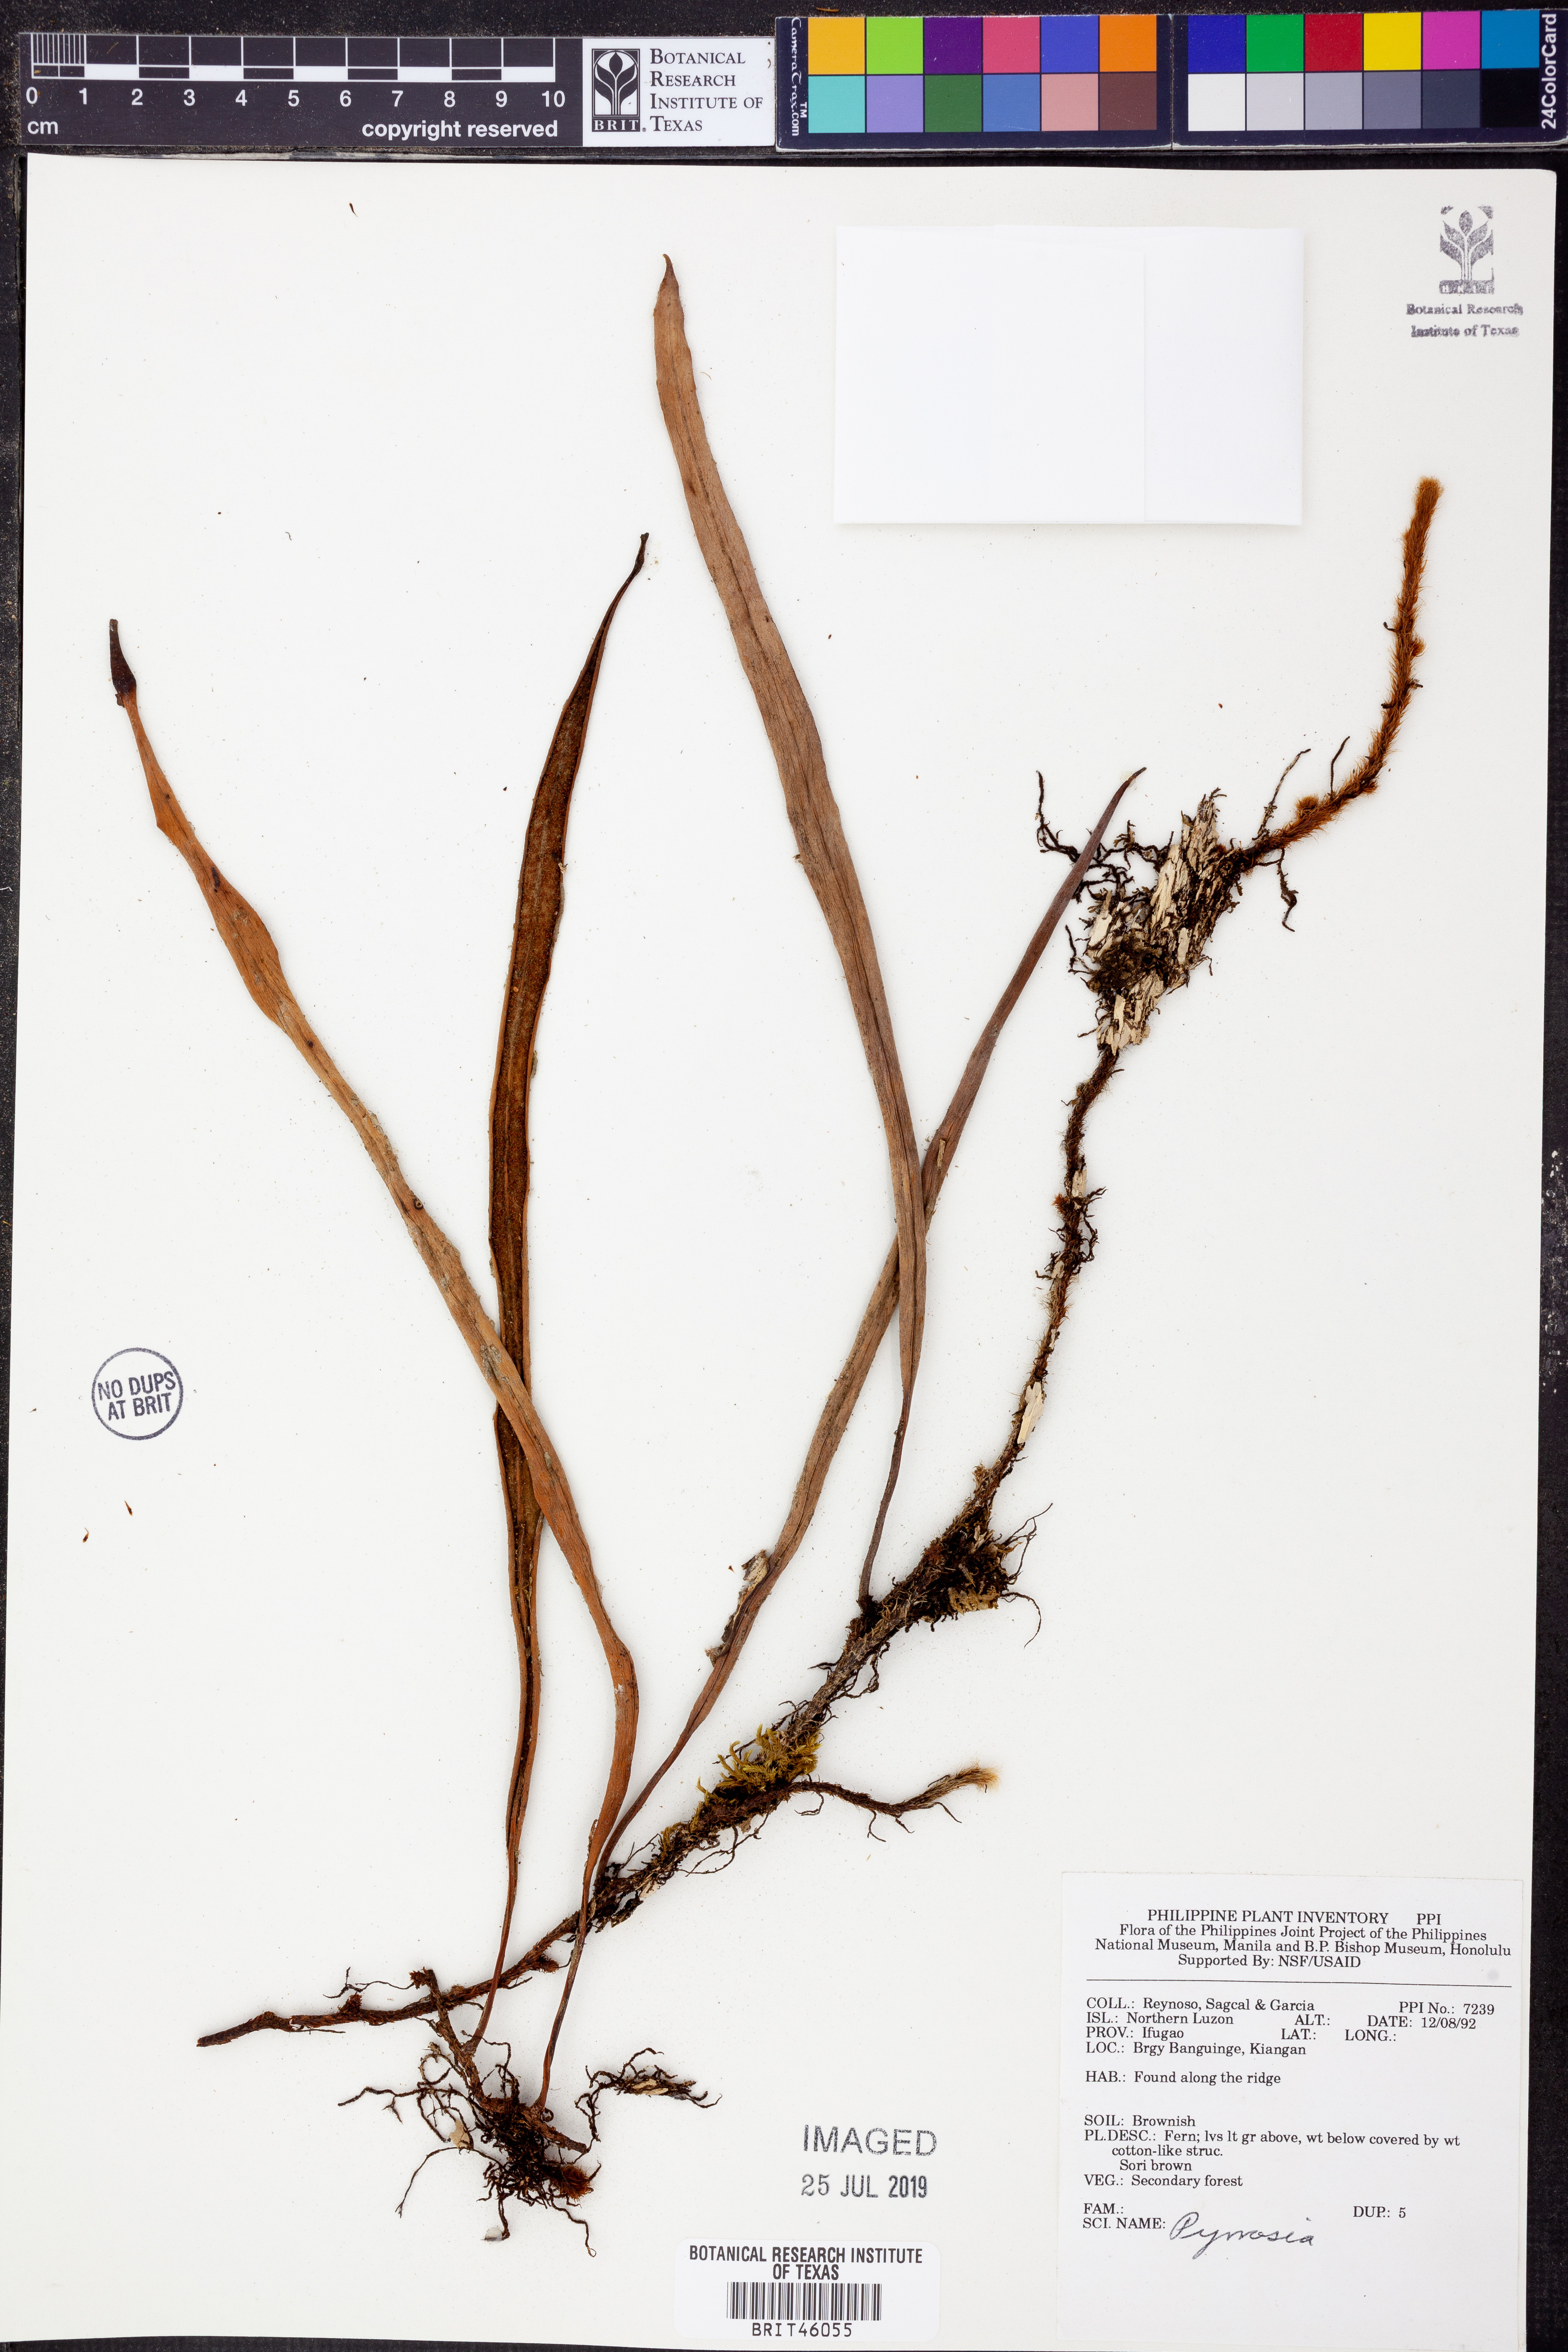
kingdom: Plantae
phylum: Tracheophyta
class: Polypodiopsida
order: Polypodiales
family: Polypodiaceae
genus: Pyrrosia
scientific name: Pyrrosia
